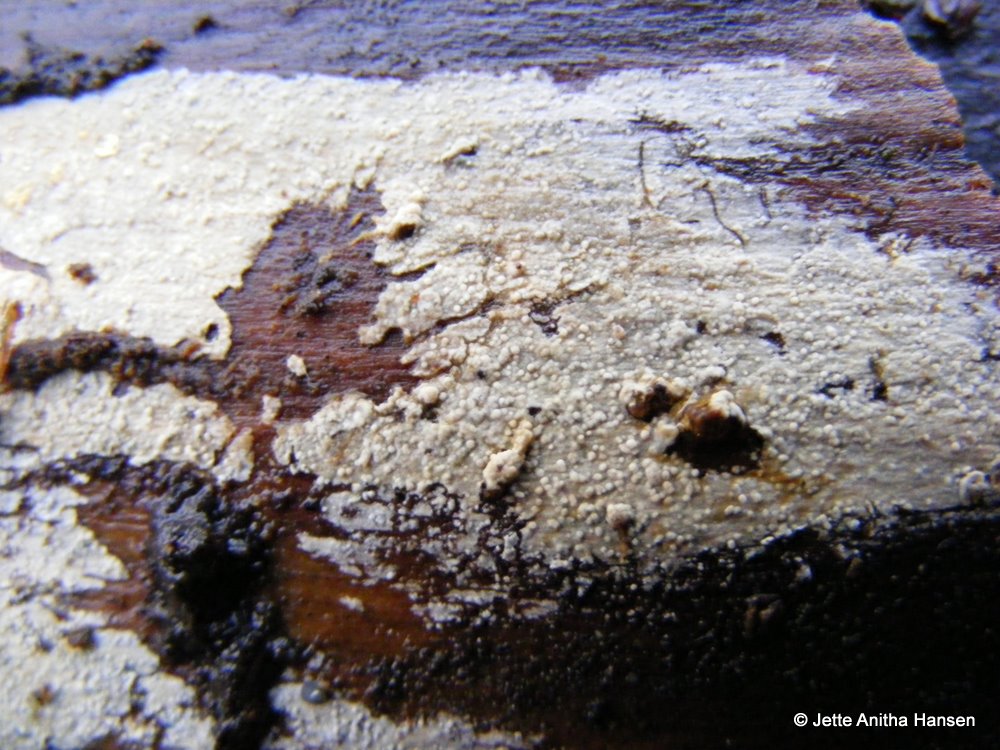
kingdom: Fungi
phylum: Basidiomycota
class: Tremellomycetes
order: Tremellales
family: Exidiaceae
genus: Basidiodendron
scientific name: Basidiodendron
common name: rækkebævresvamp
